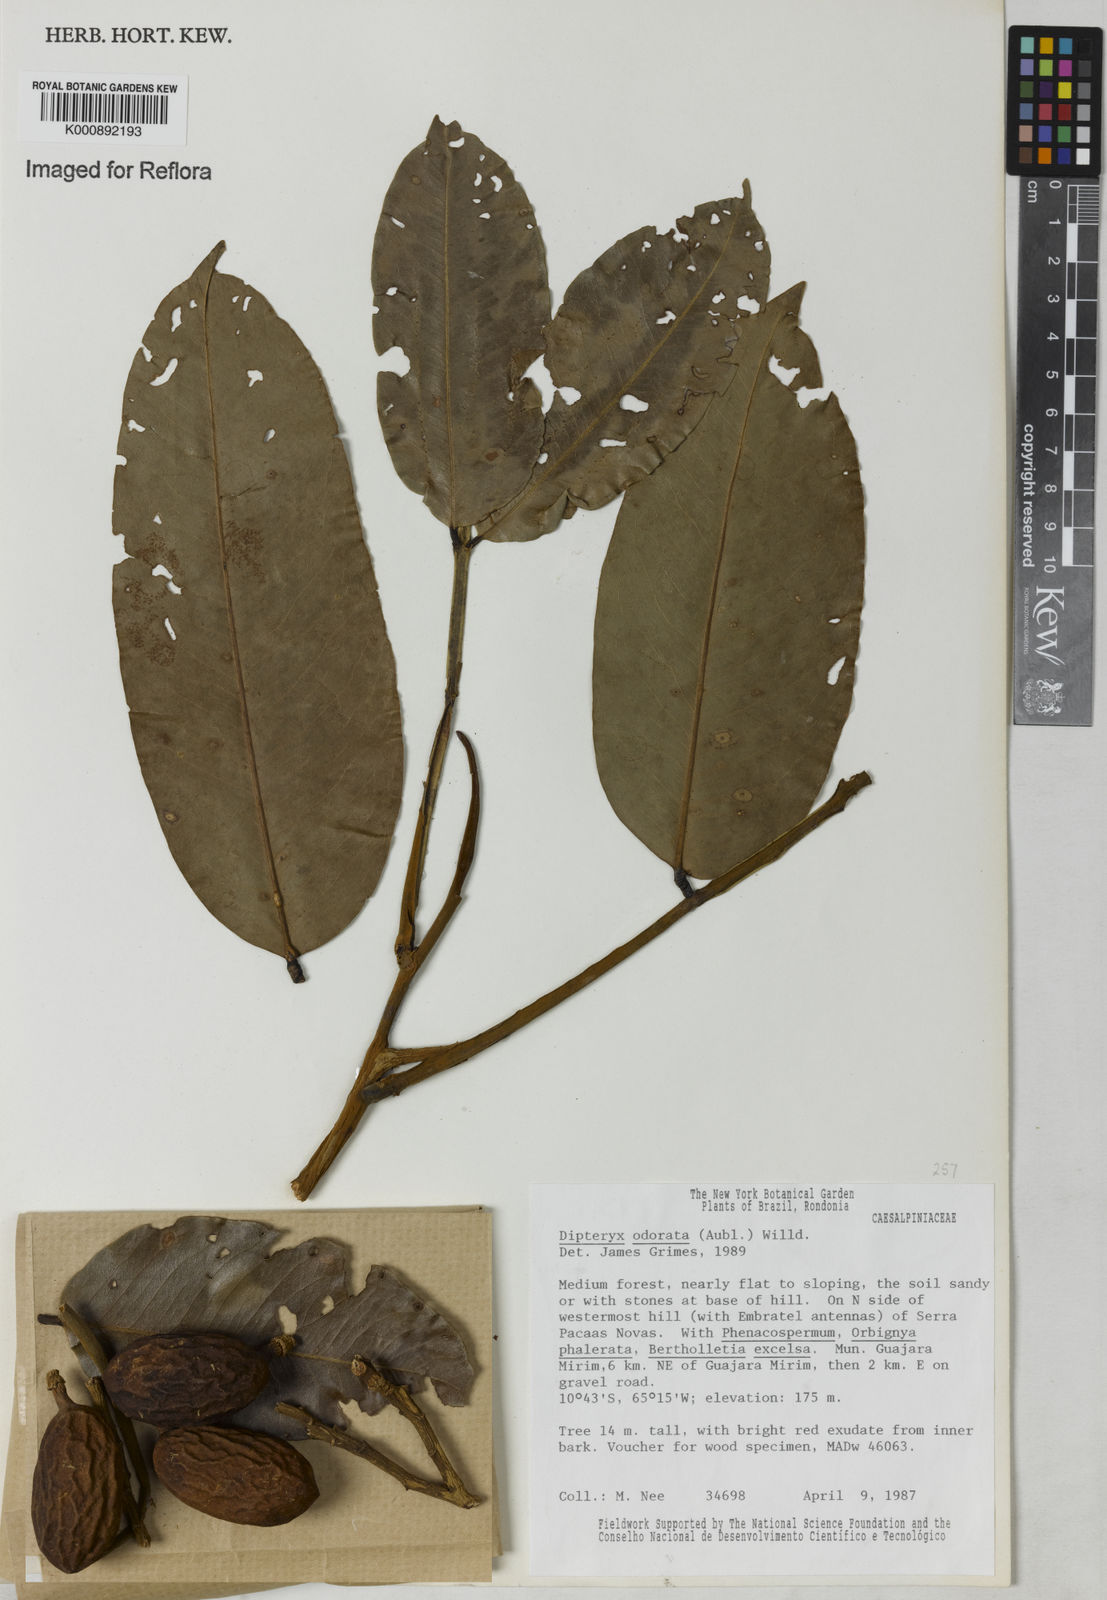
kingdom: Plantae
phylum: Tracheophyta
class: Magnoliopsida
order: Fabales
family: Fabaceae
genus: Dipteryx
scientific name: Dipteryx
